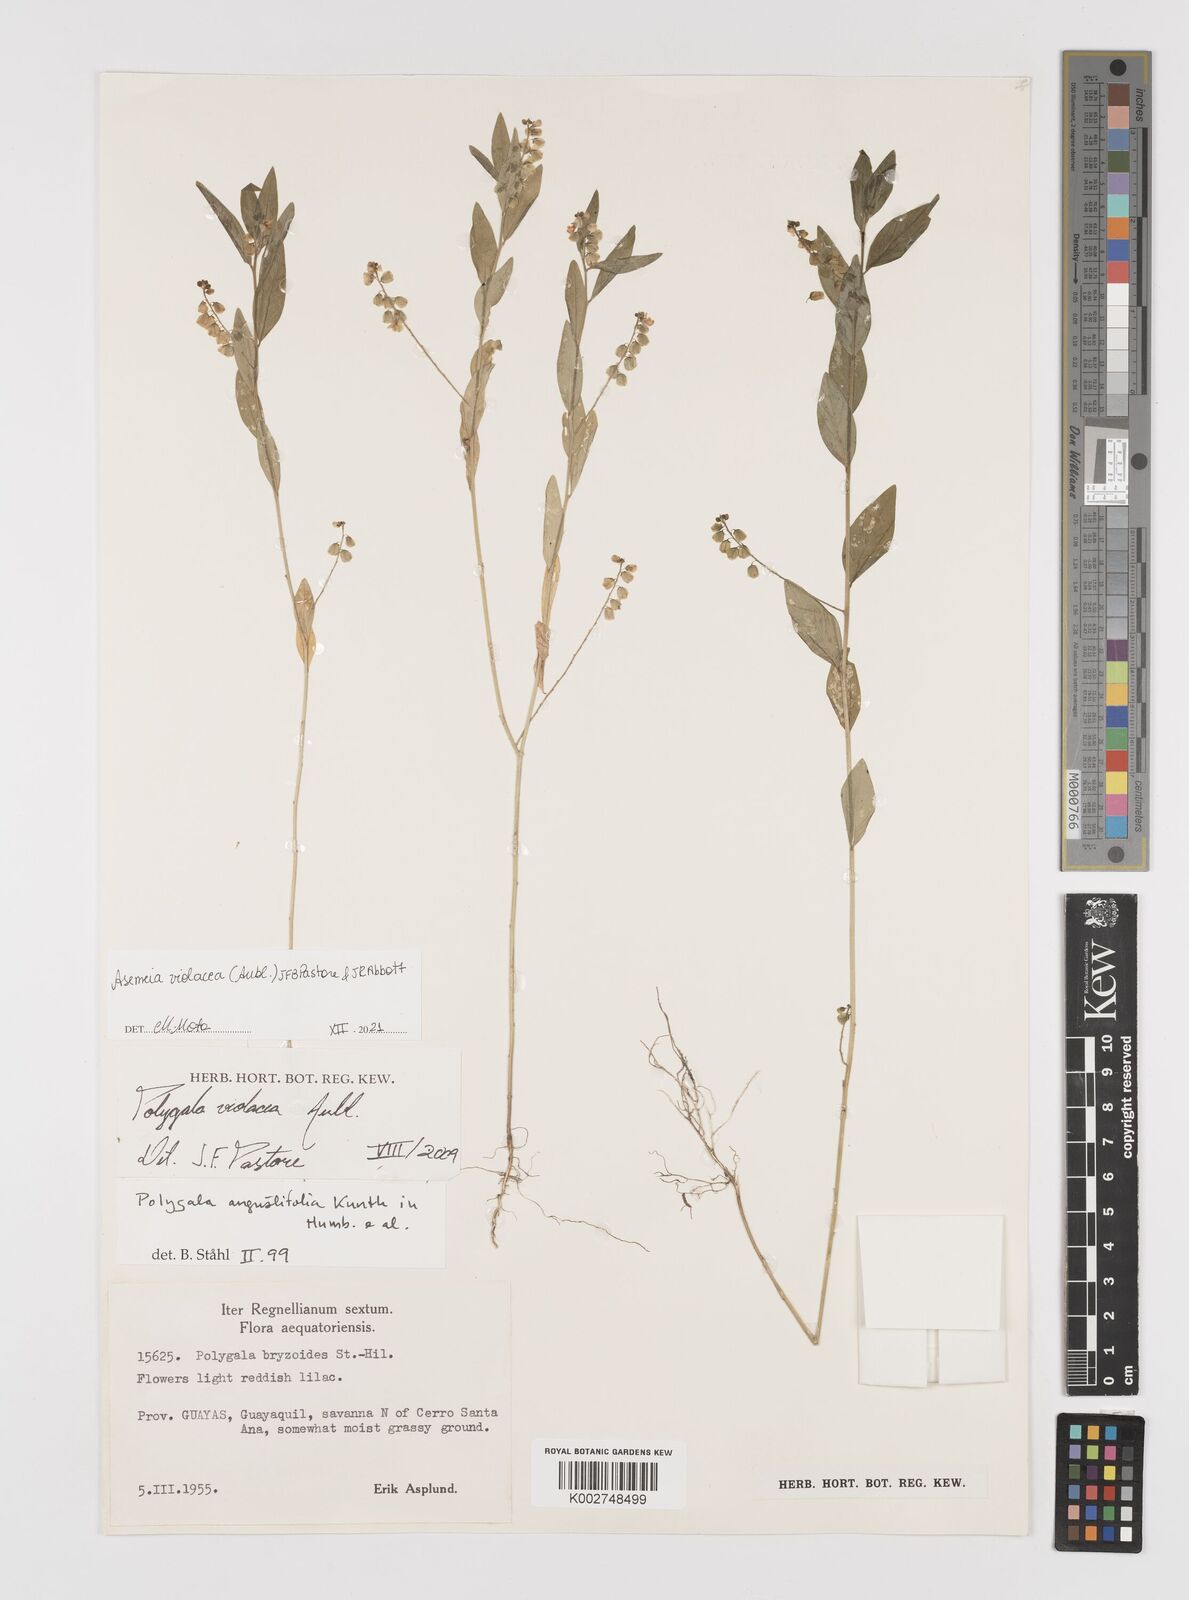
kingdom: Plantae
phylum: Tracheophyta
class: Magnoliopsida
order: Fabales
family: Polygalaceae
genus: Asemeia
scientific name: Asemeia violacea
